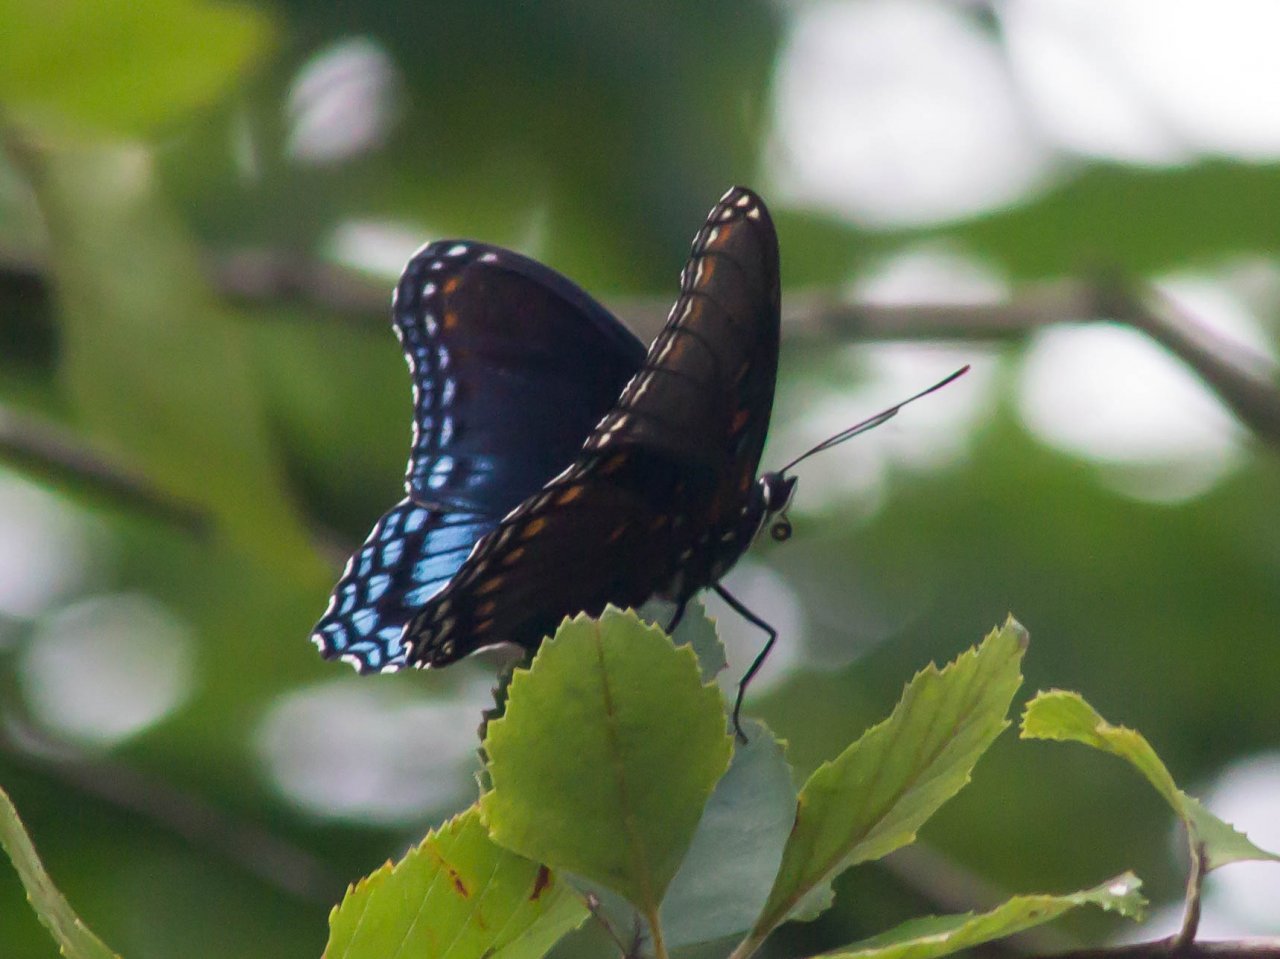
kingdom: Animalia
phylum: Arthropoda
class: Insecta
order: Lepidoptera
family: Nymphalidae
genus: Limenitis
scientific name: Limenitis astyanax
